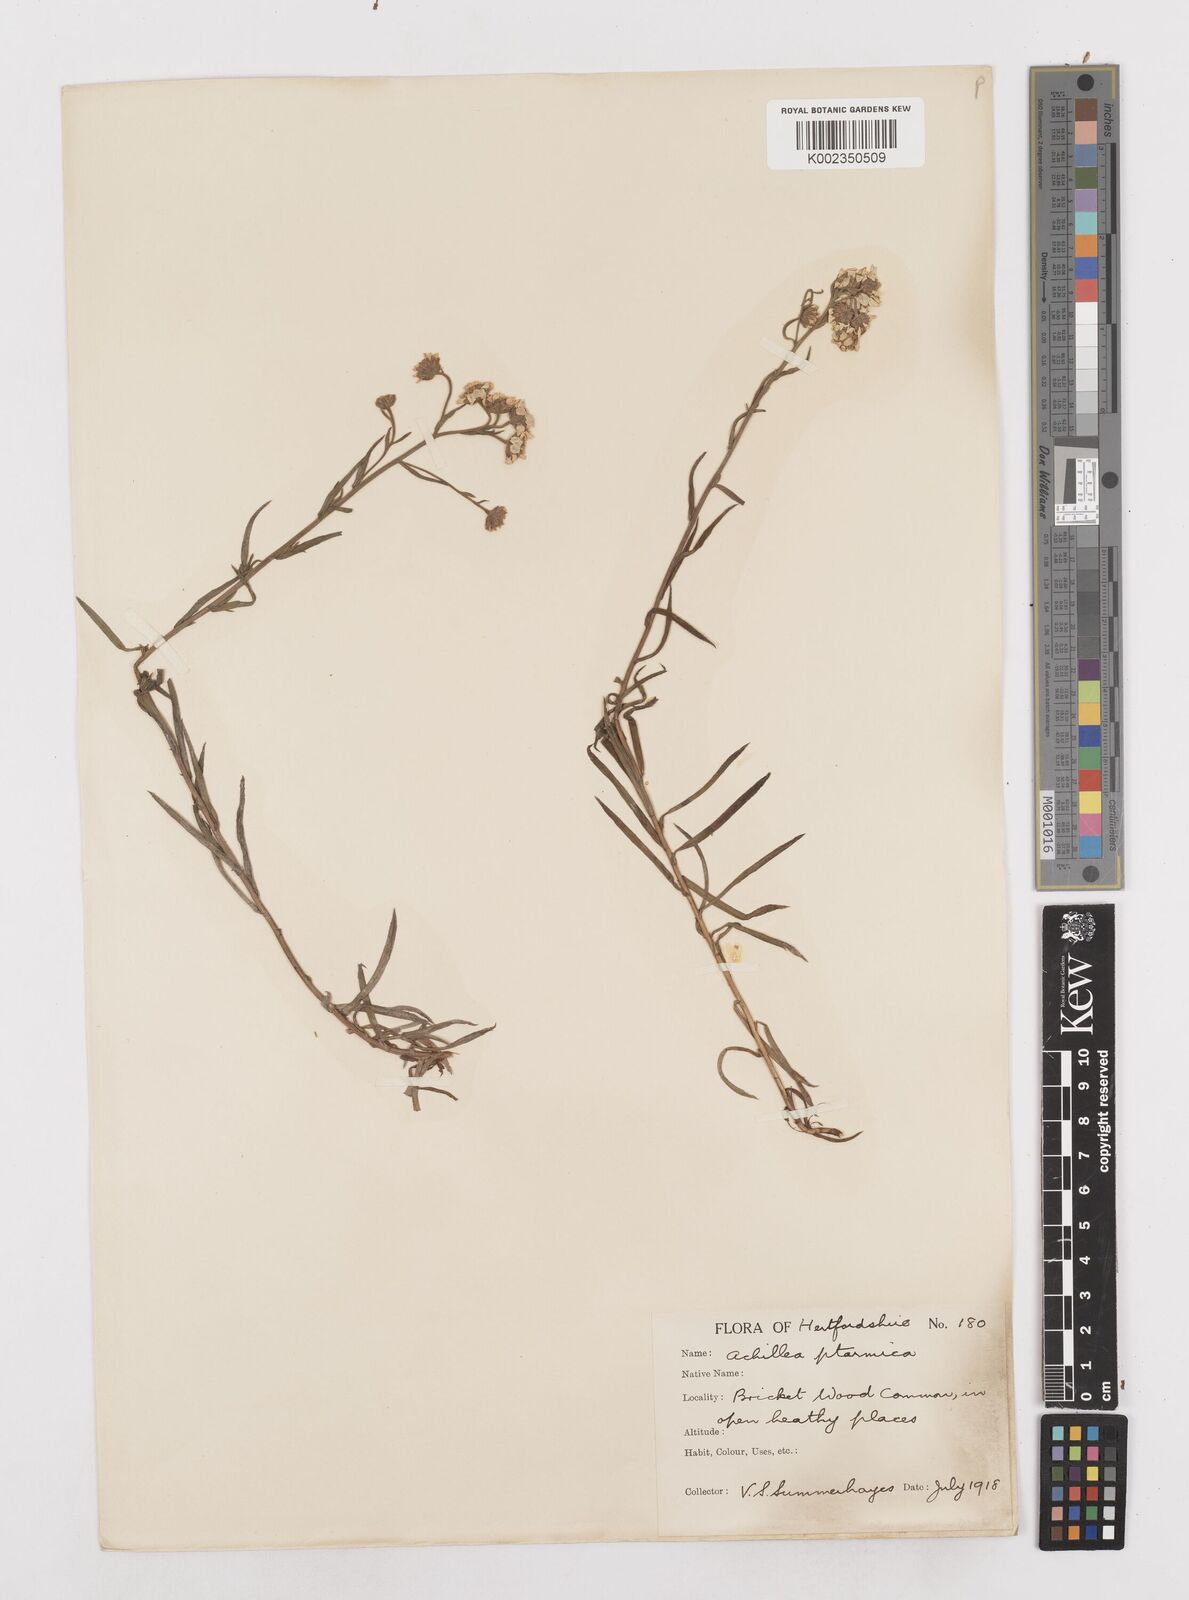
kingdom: Plantae
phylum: Tracheophyta
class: Magnoliopsida
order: Asterales
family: Asteraceae
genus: Achillea
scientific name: Achillea ptarmica
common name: Sneezeweed
